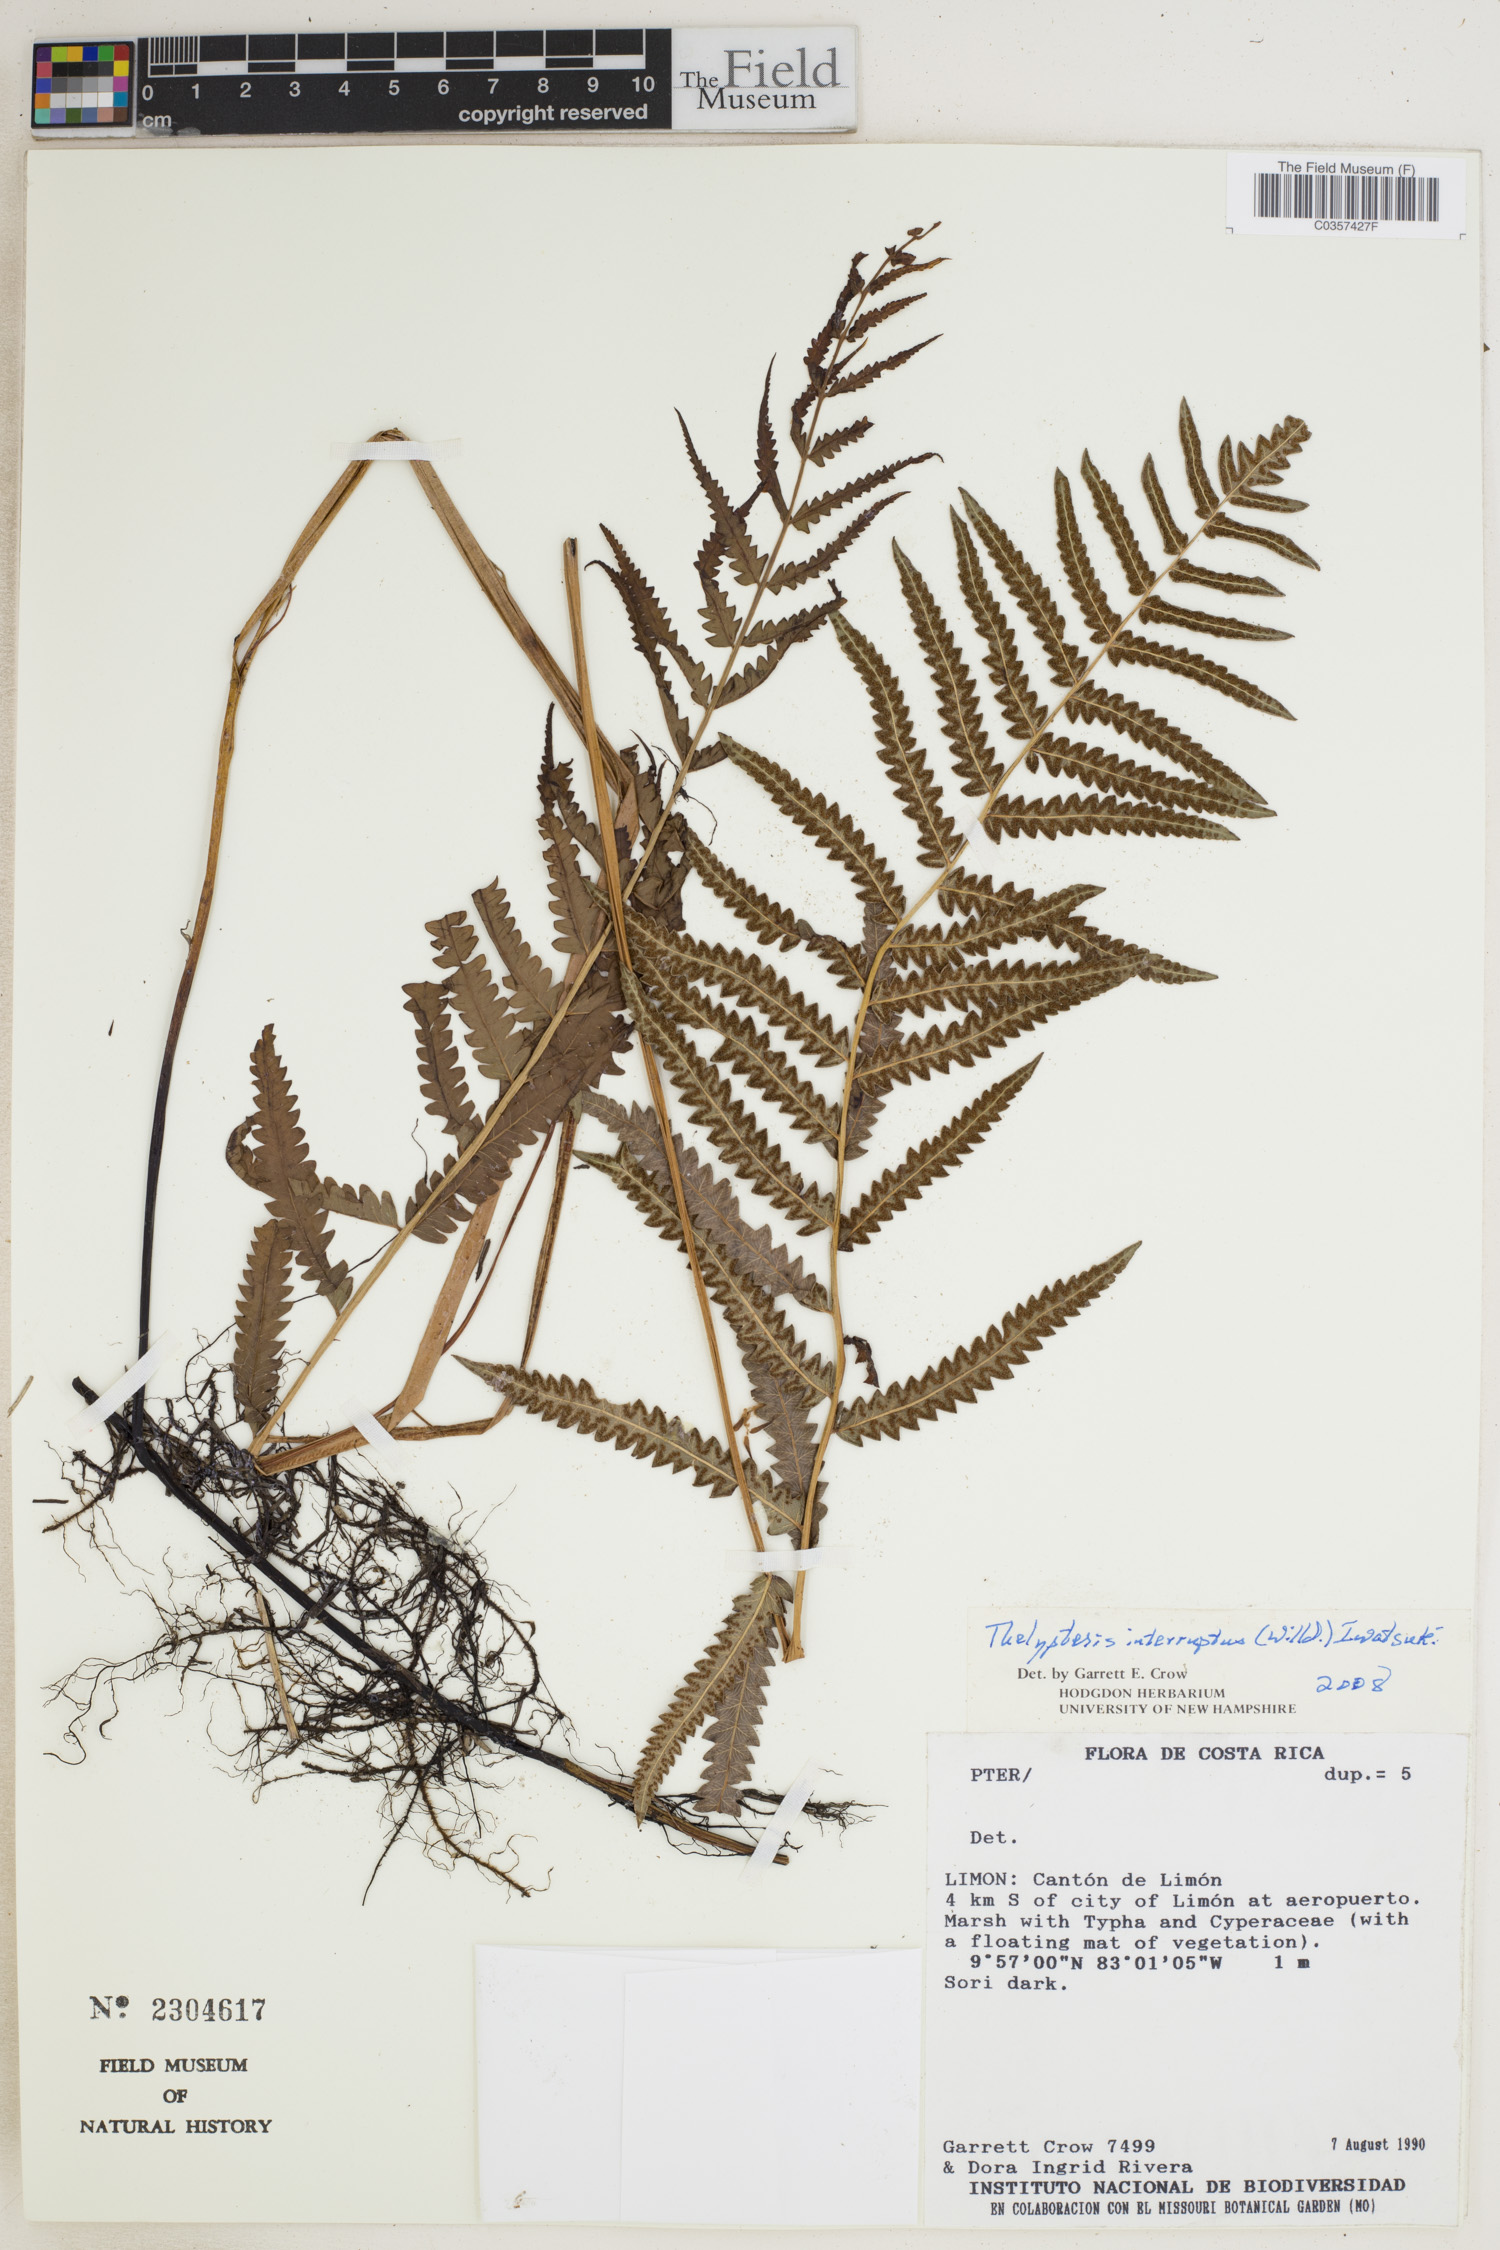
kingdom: Plantae
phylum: Tracheophyta
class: Polypodiopsida
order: Polypodiales
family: Thelypteridaceae
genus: Cyclosorus
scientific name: Cyclosorus interruptus
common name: Neke fern
